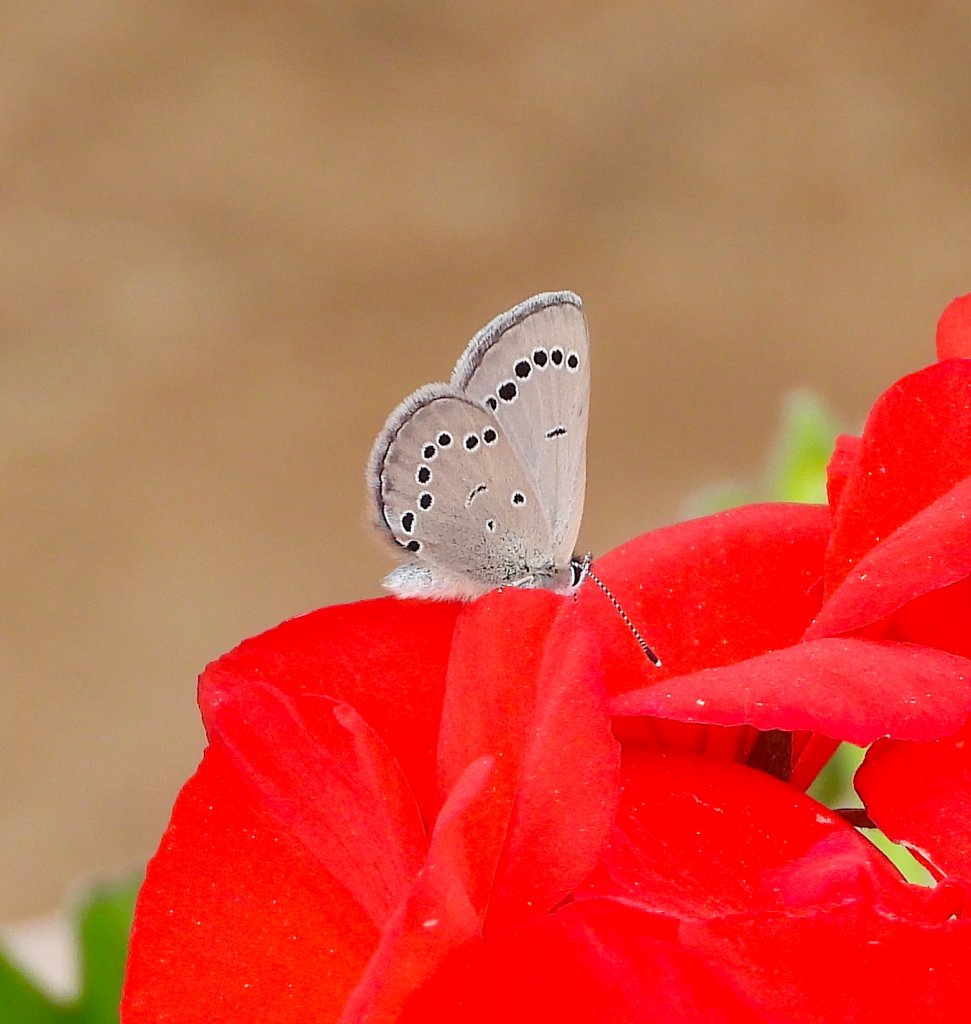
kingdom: Animalia
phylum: Arthropoda
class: Insecta
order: Lepidoptera
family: Lycaenidae
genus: Glaucopsyche
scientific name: Glaucopsyche lygdamus
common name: Silvery Blue
